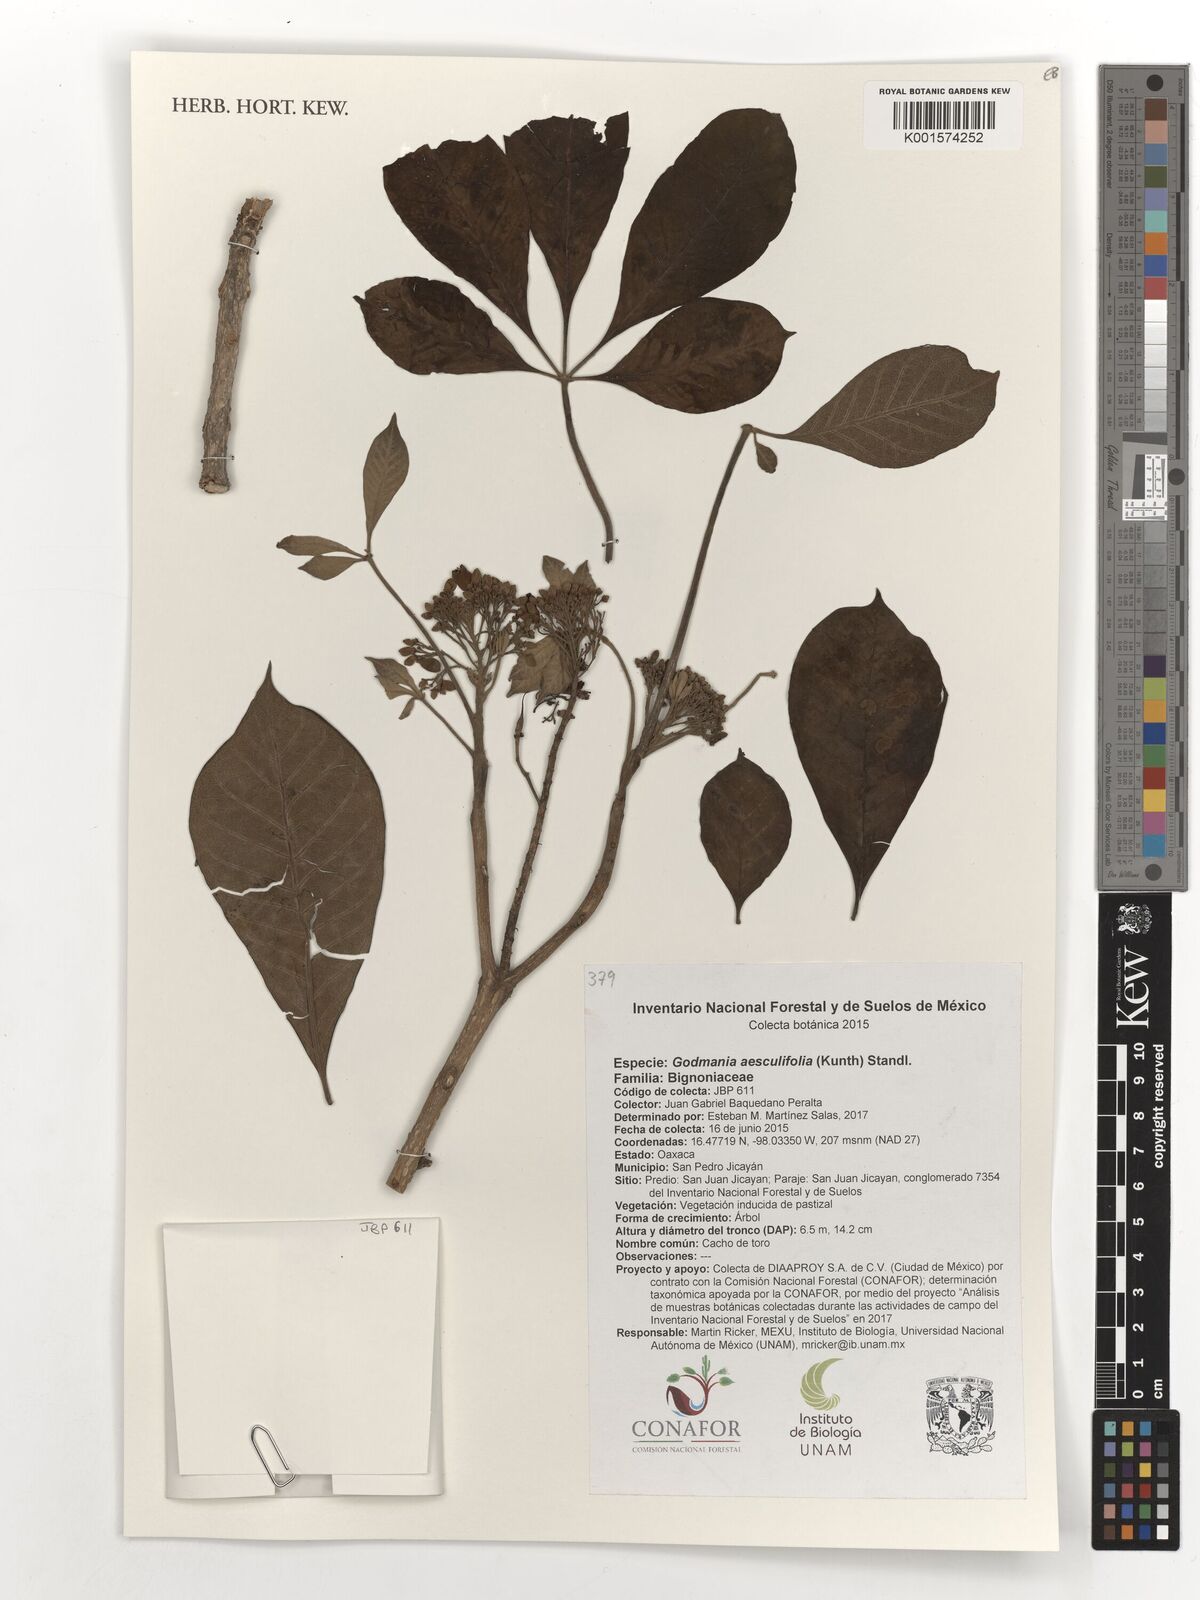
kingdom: Plantae
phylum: Tracheophyta
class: Magnoliopsida
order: Lamiales
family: Bignoniaceae
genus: Godmania
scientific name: Godmania aesculifolia
